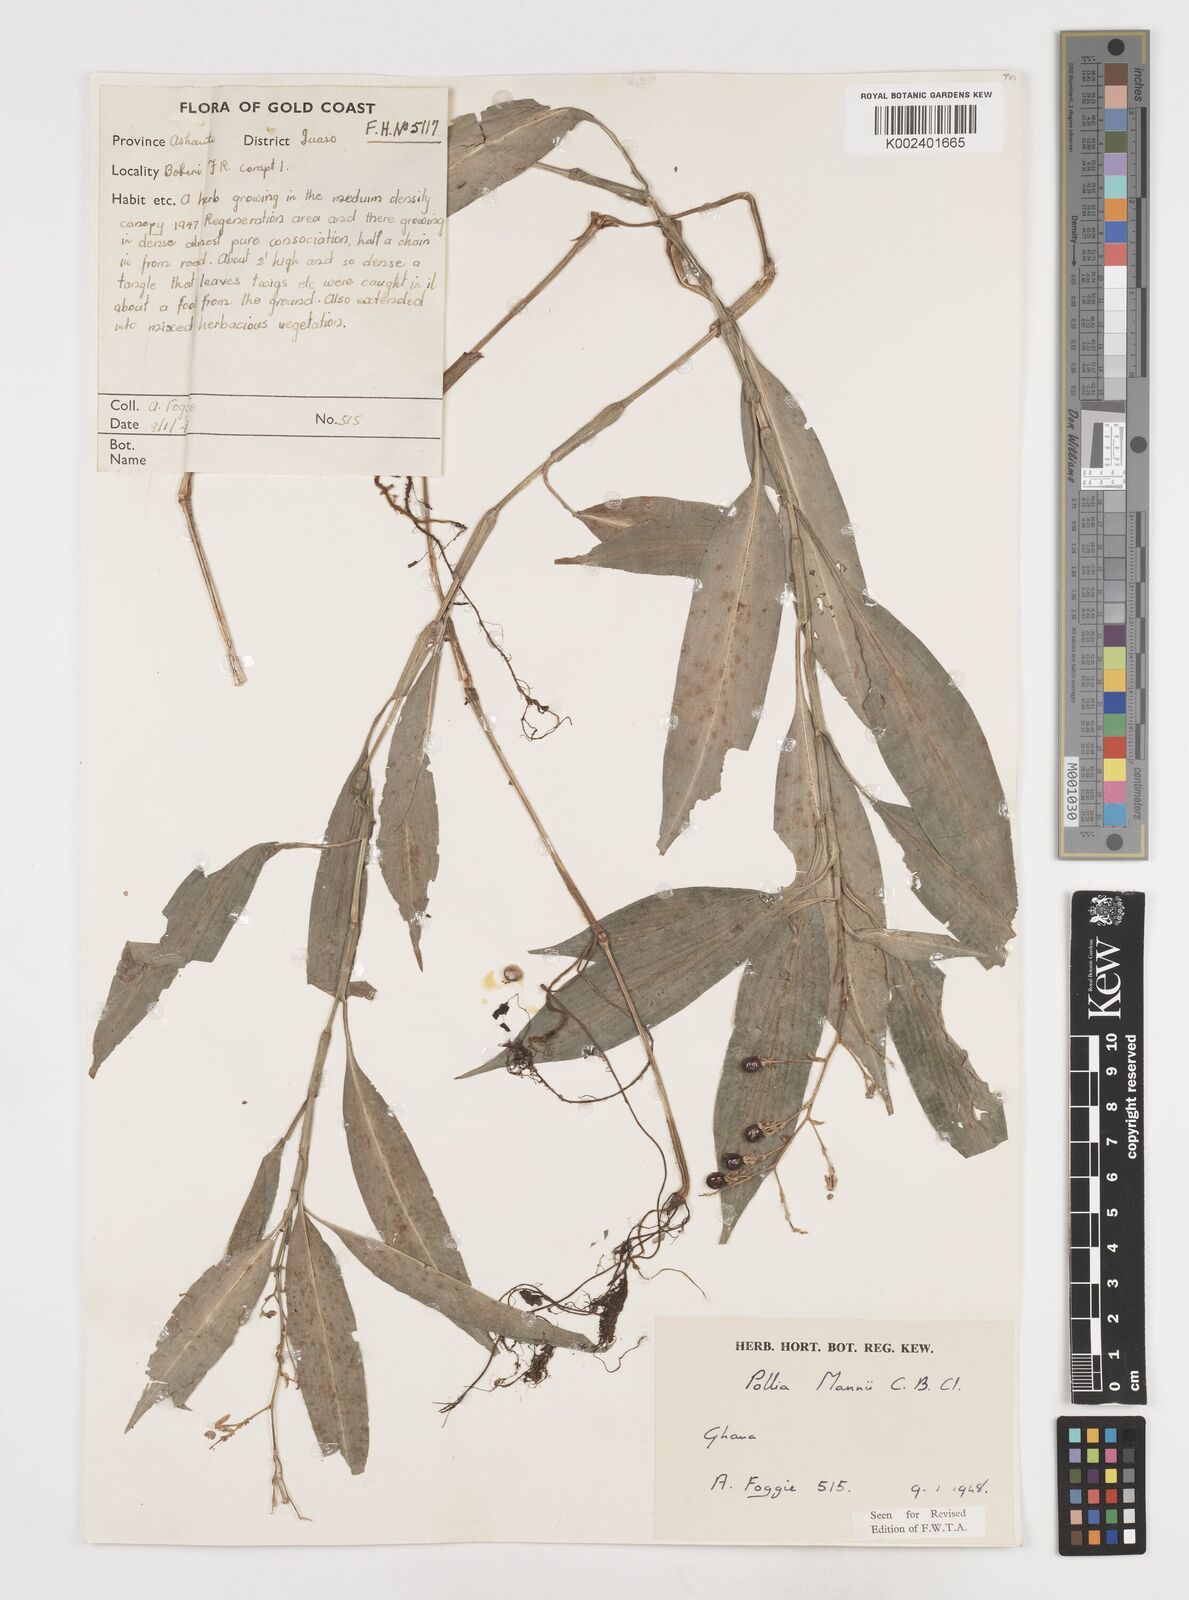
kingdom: Plantae
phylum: Tracheophyta
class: Liliopsida
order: Commelinales
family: Commelinaceae
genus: Pollia
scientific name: Pollia mannii
